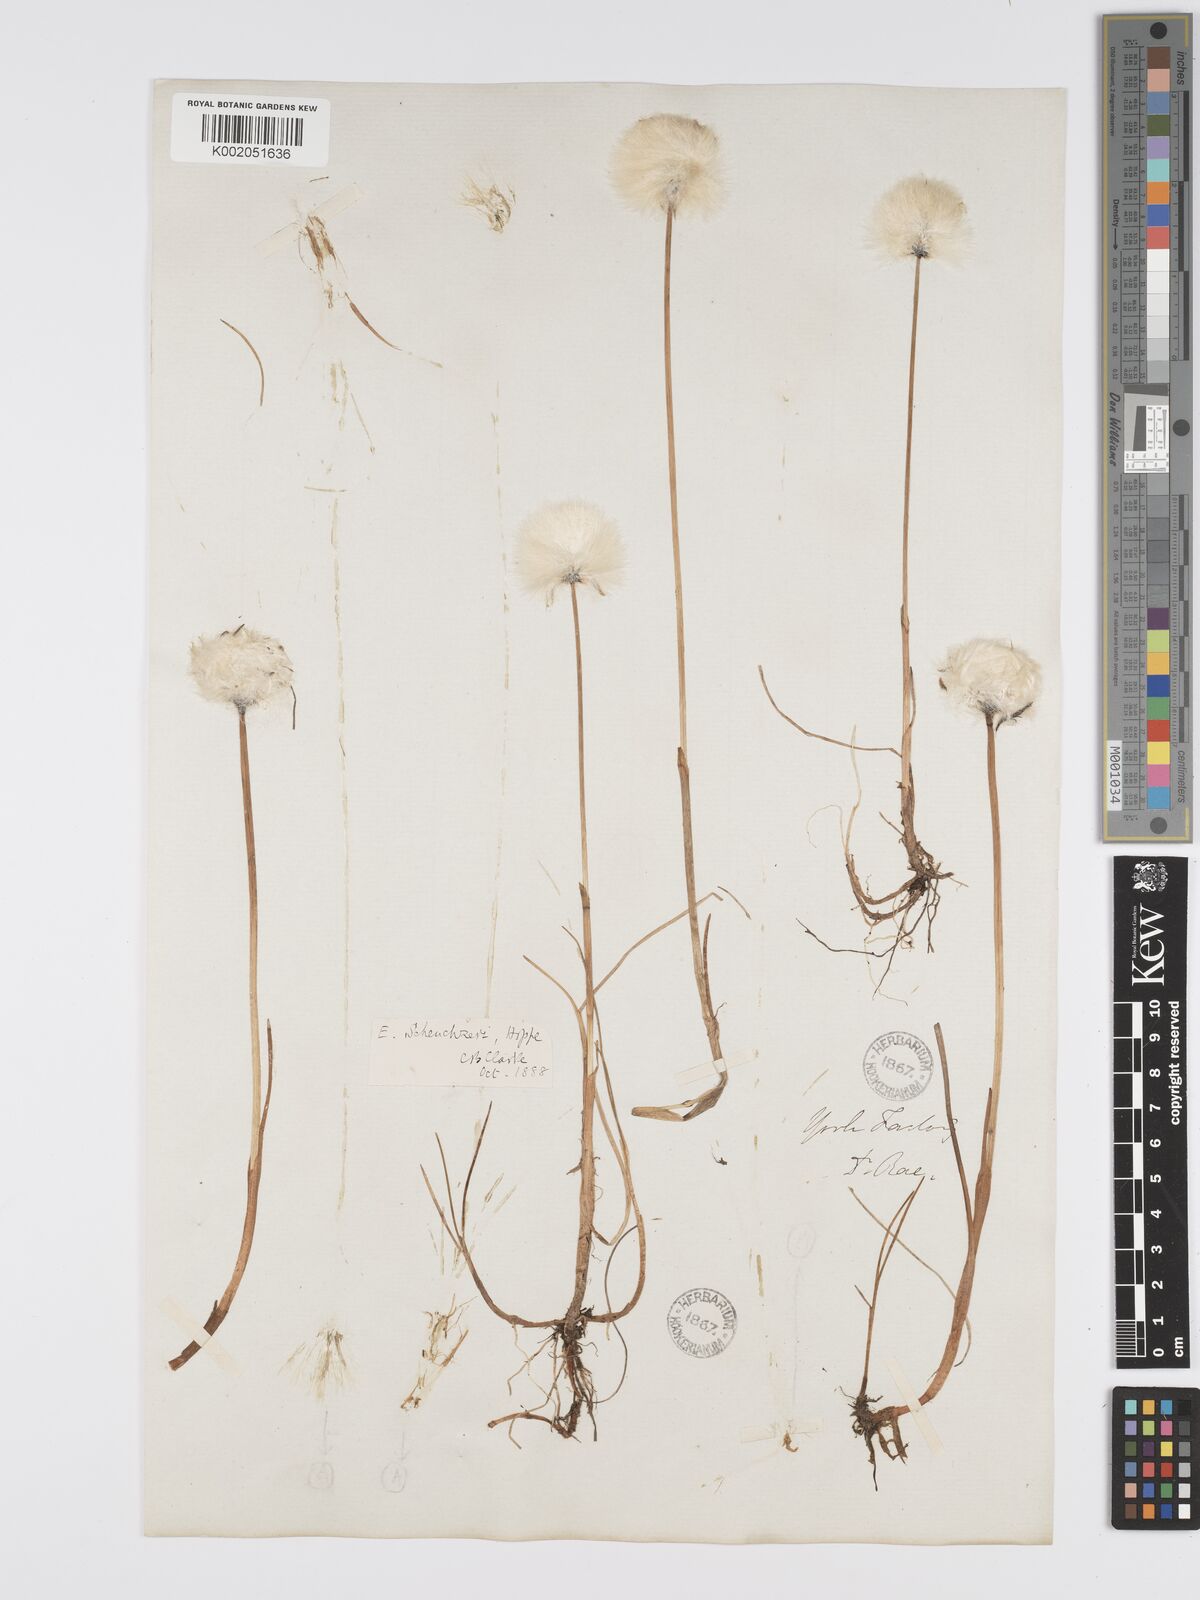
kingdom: Plantae
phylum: Tracheophyta
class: Liliopsida
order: Poales
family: Cyperaceae
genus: Eriophorum
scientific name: Eriophorum scheuchzeri
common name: Scheuchzer's cottongrass
